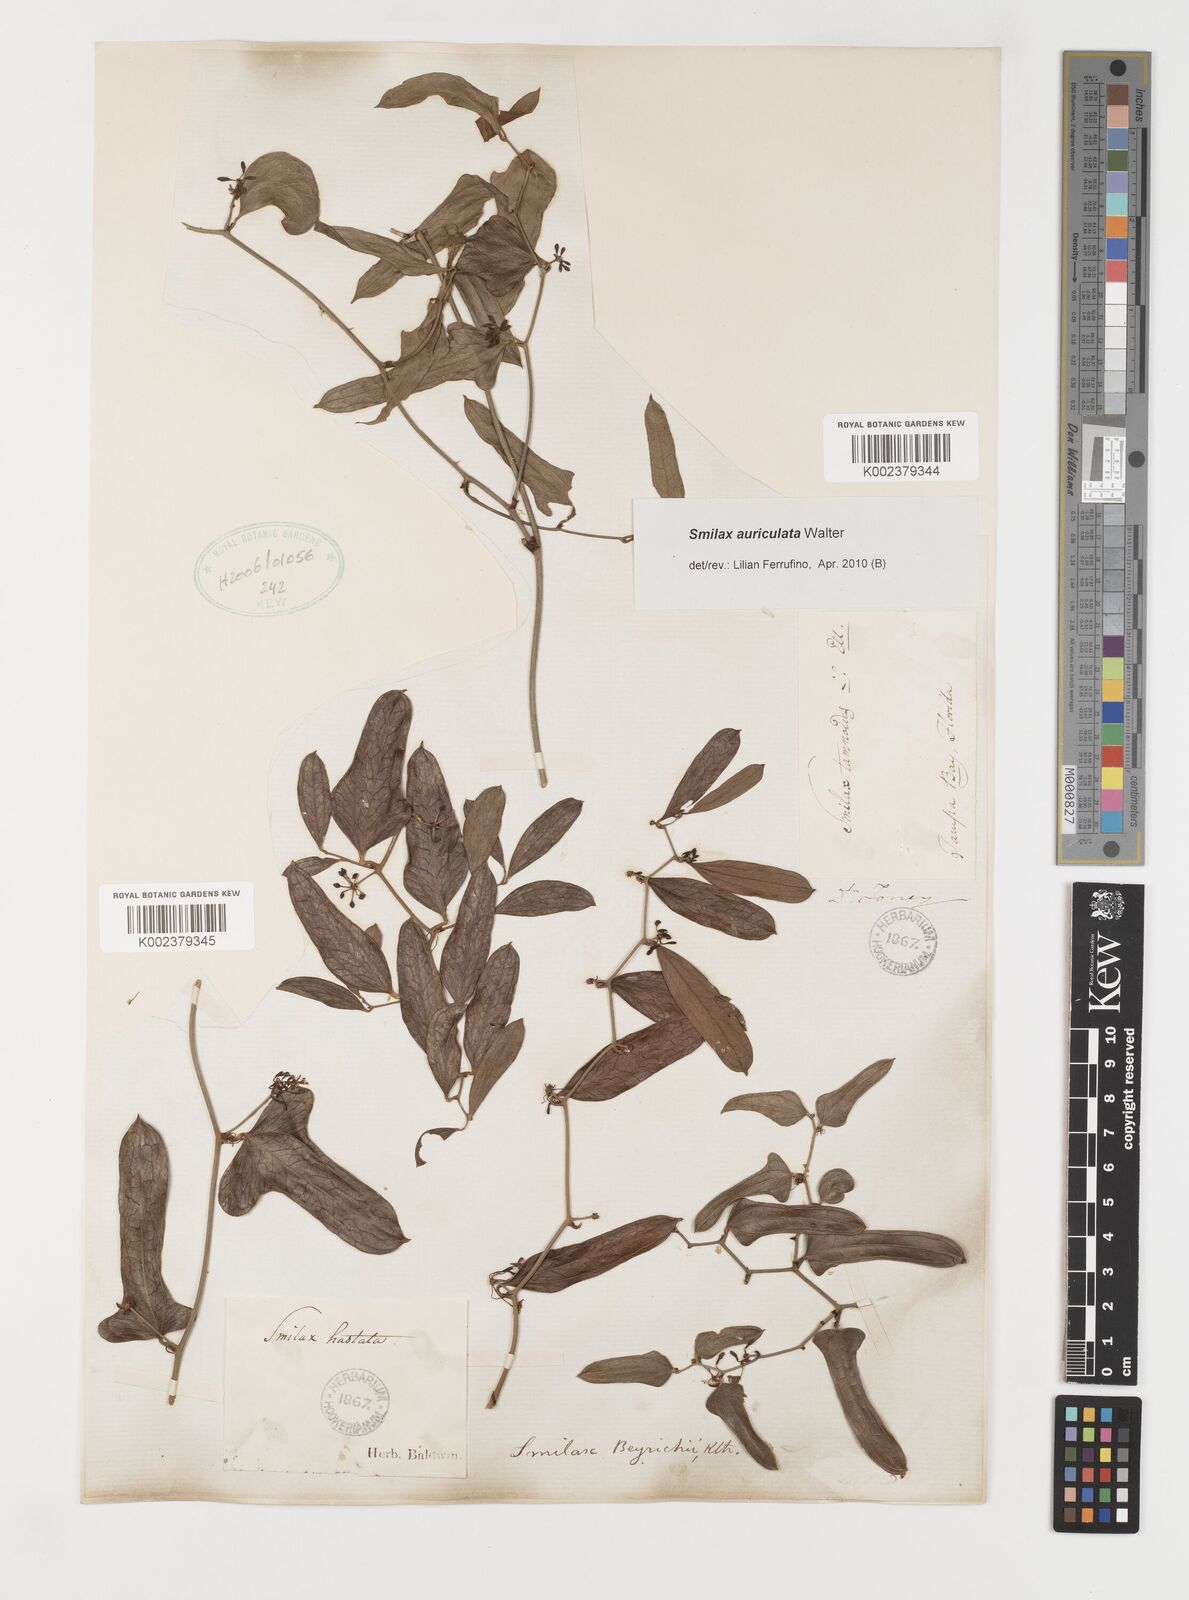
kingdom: Plantae
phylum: Tracheophyta
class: Liliopsida
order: Liliales
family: Smilacaceae
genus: Smilax
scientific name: Smilax auriculata
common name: Wild bamboo
